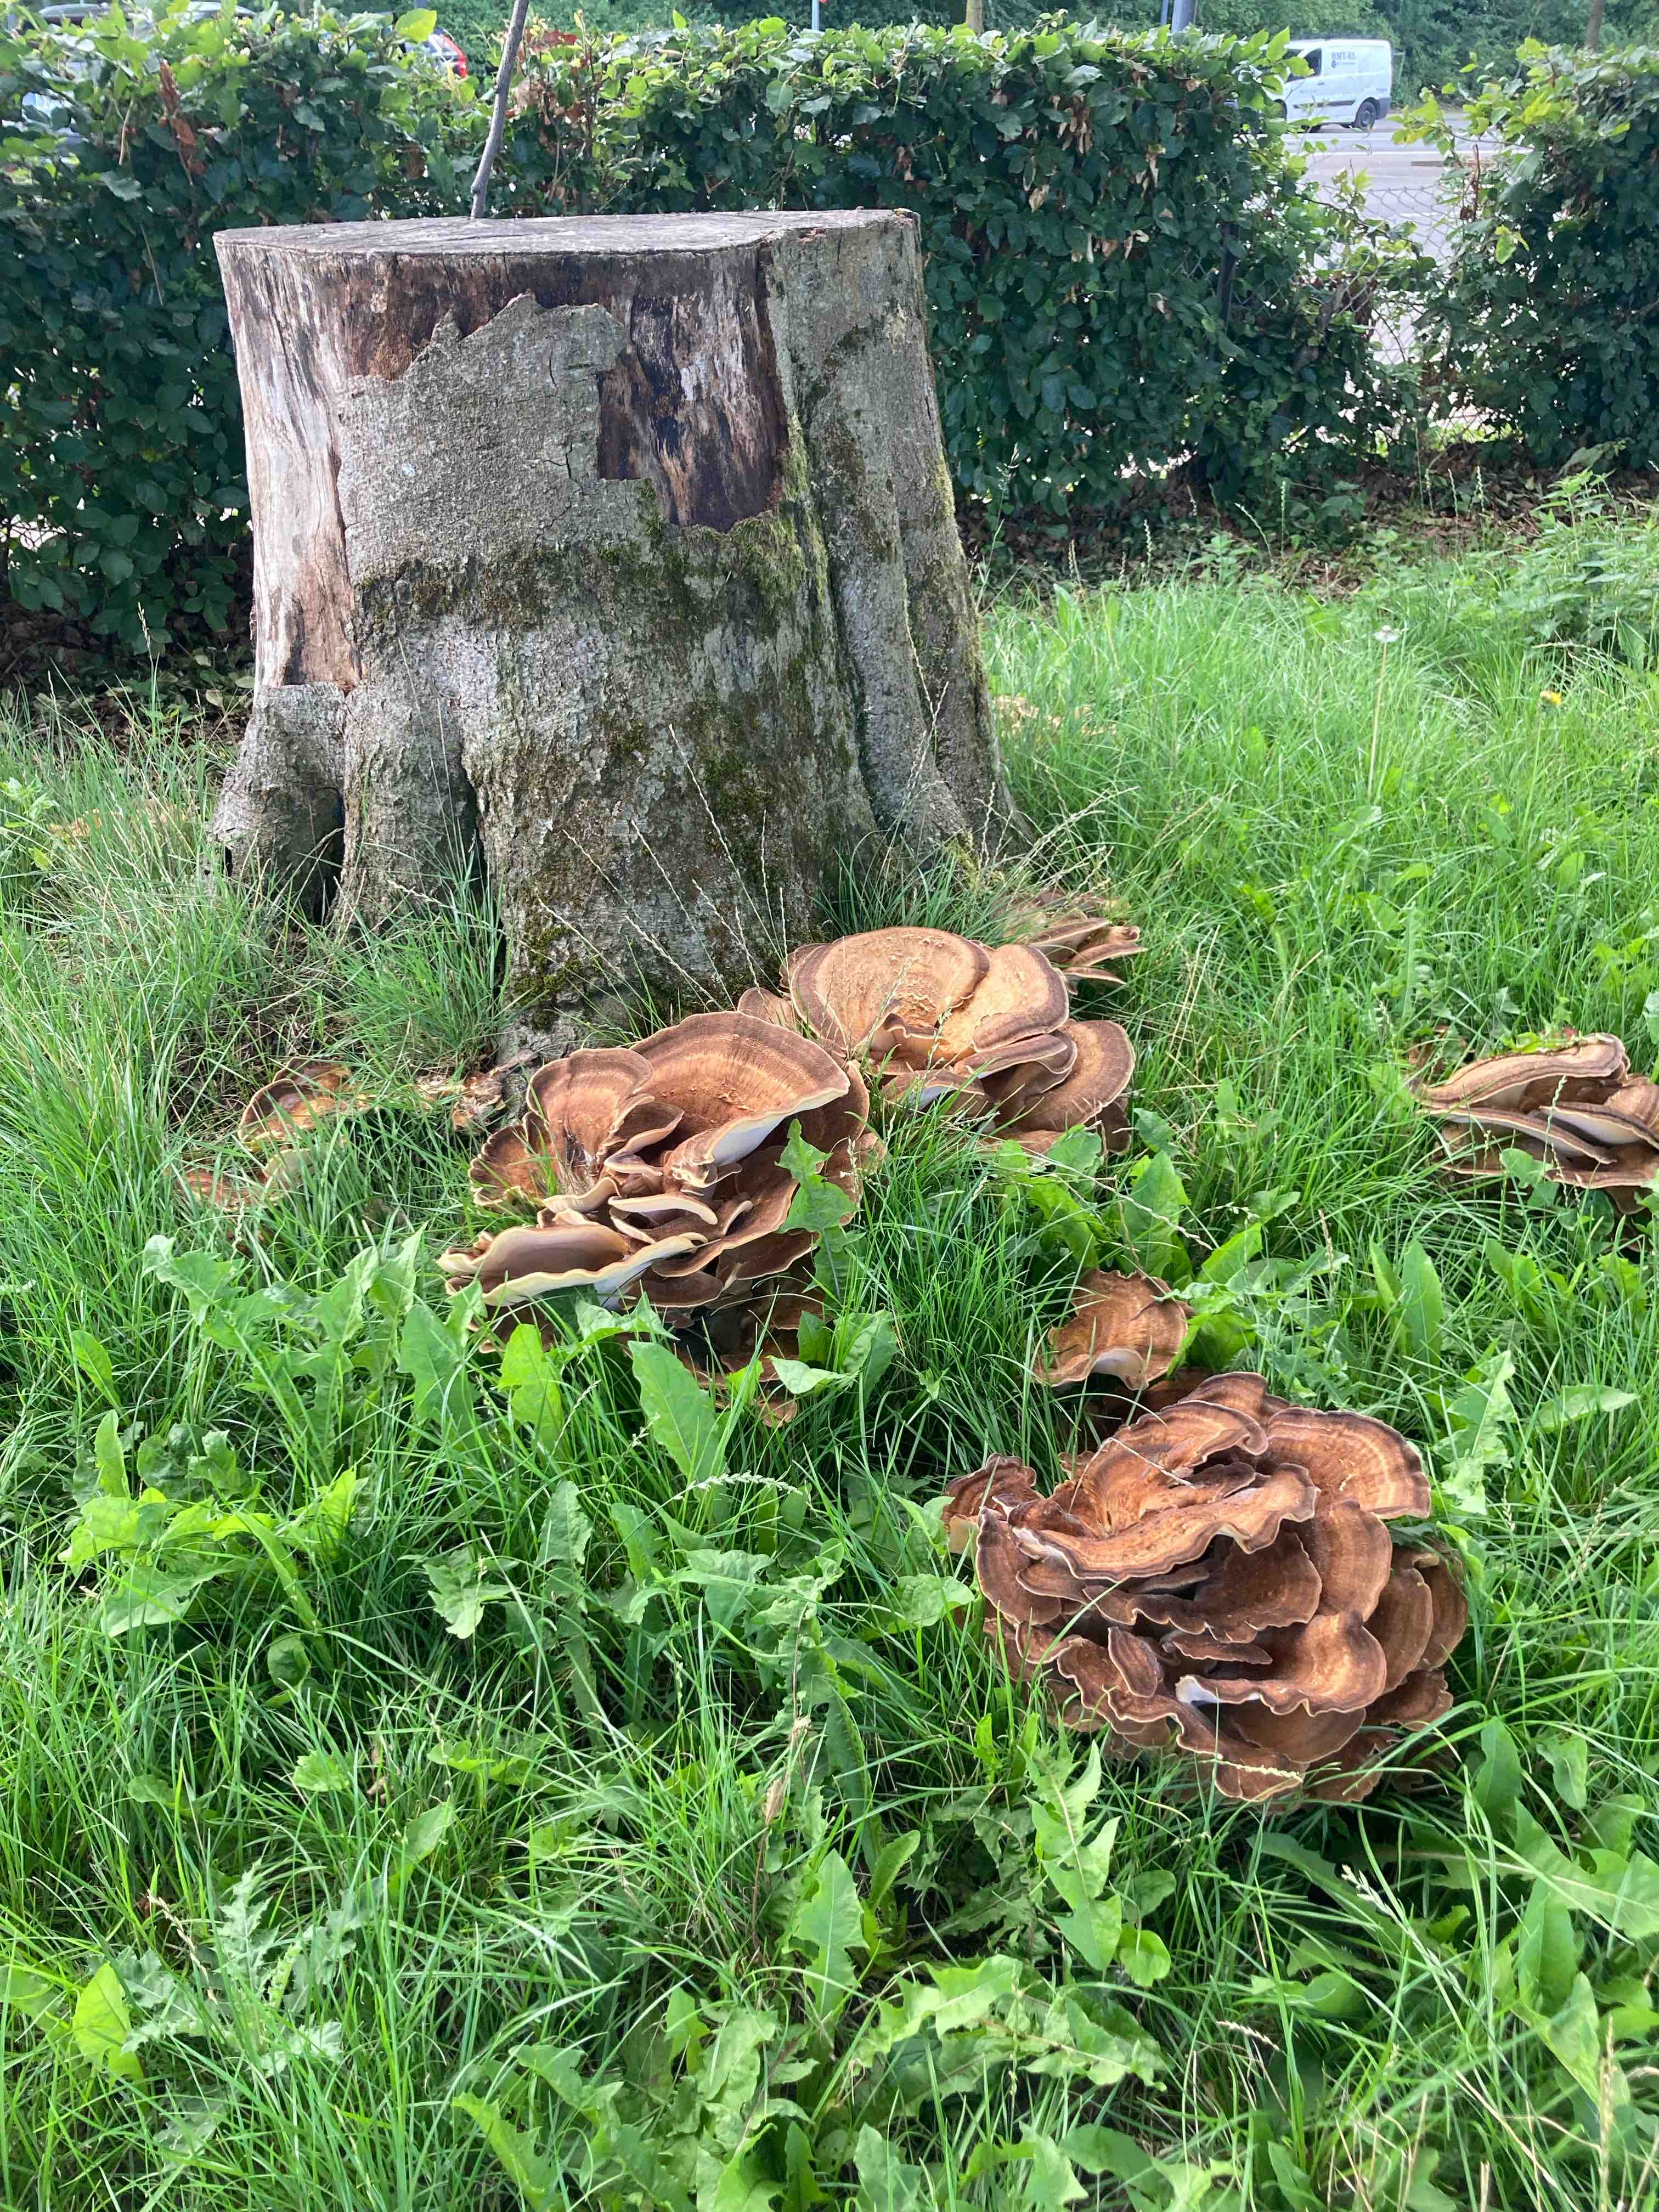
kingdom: Fungi
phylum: Basidiomycota
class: Agaricomycetes
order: Polyporales
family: Meripilaceae
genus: Meripilus
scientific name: Meripilus giganteus
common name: kæmpeporesvamp
